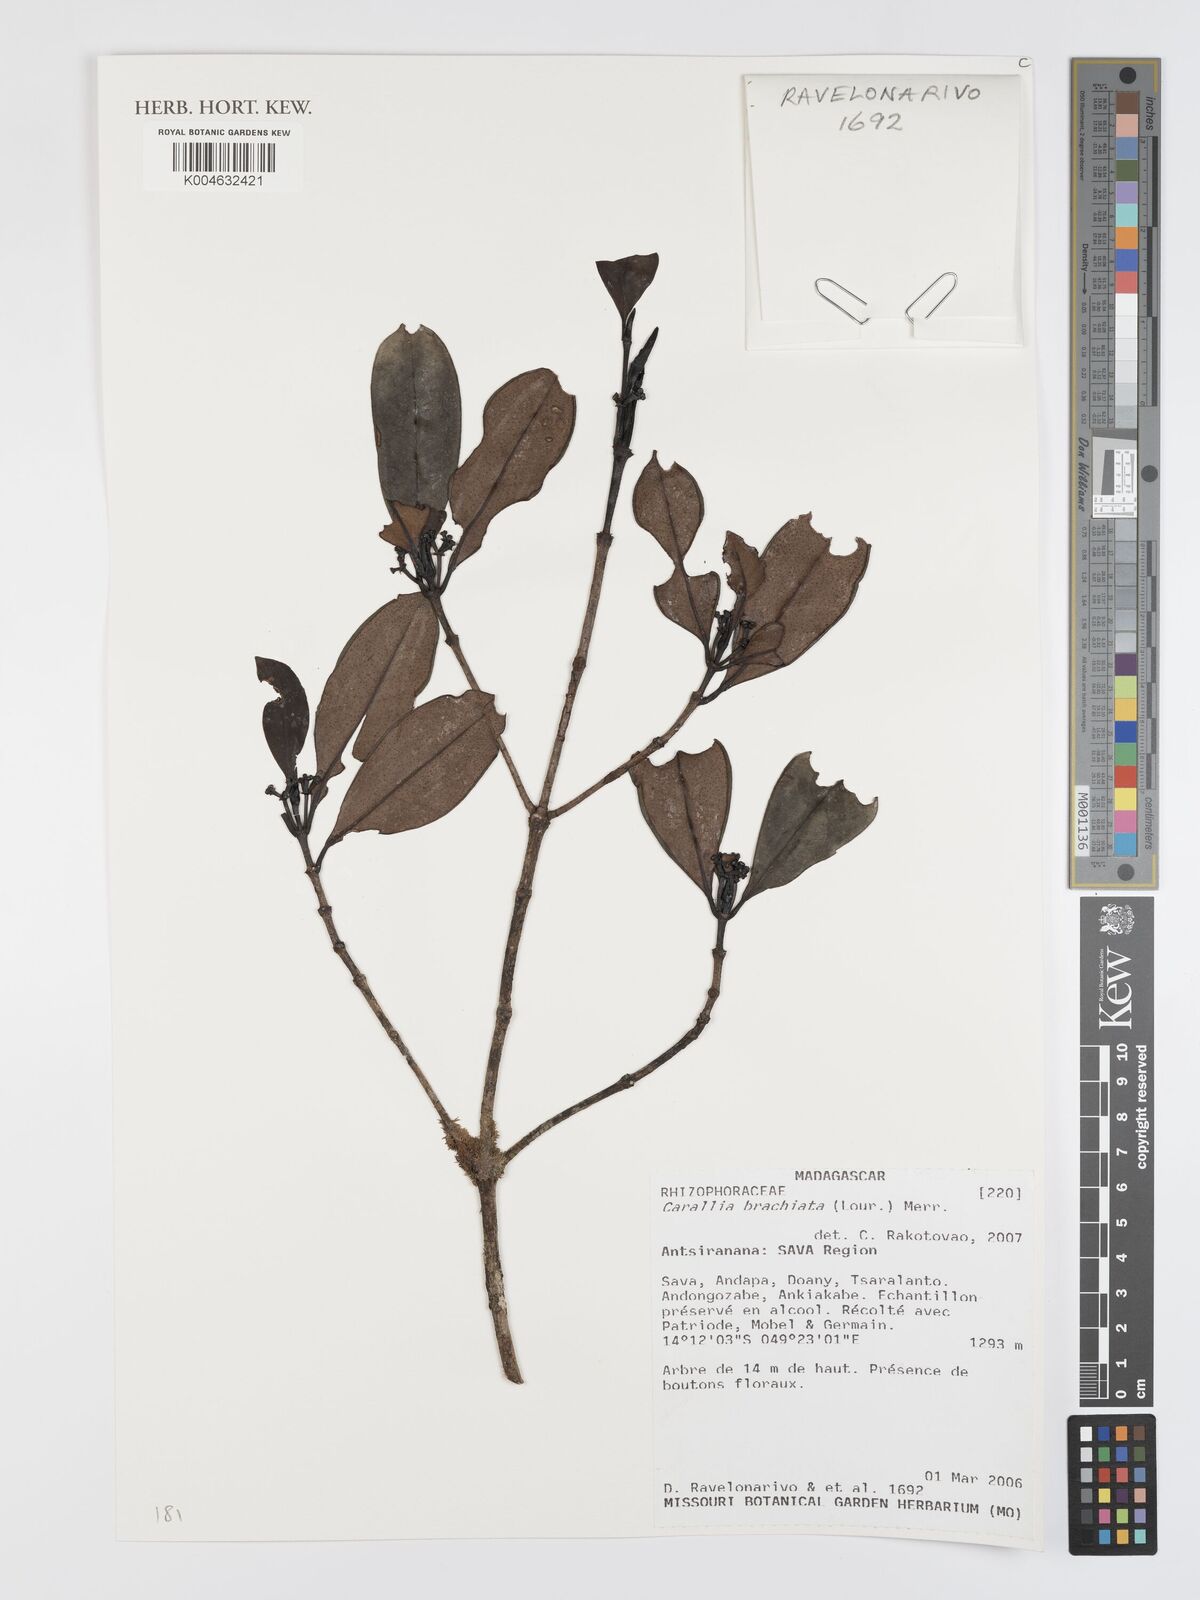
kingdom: Plantae
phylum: Tracheophyta
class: Magnoliopsida
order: Malpighiales
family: Rhizophoraceae
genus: Carallia
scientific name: Carallia brachiata
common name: Carallawood
